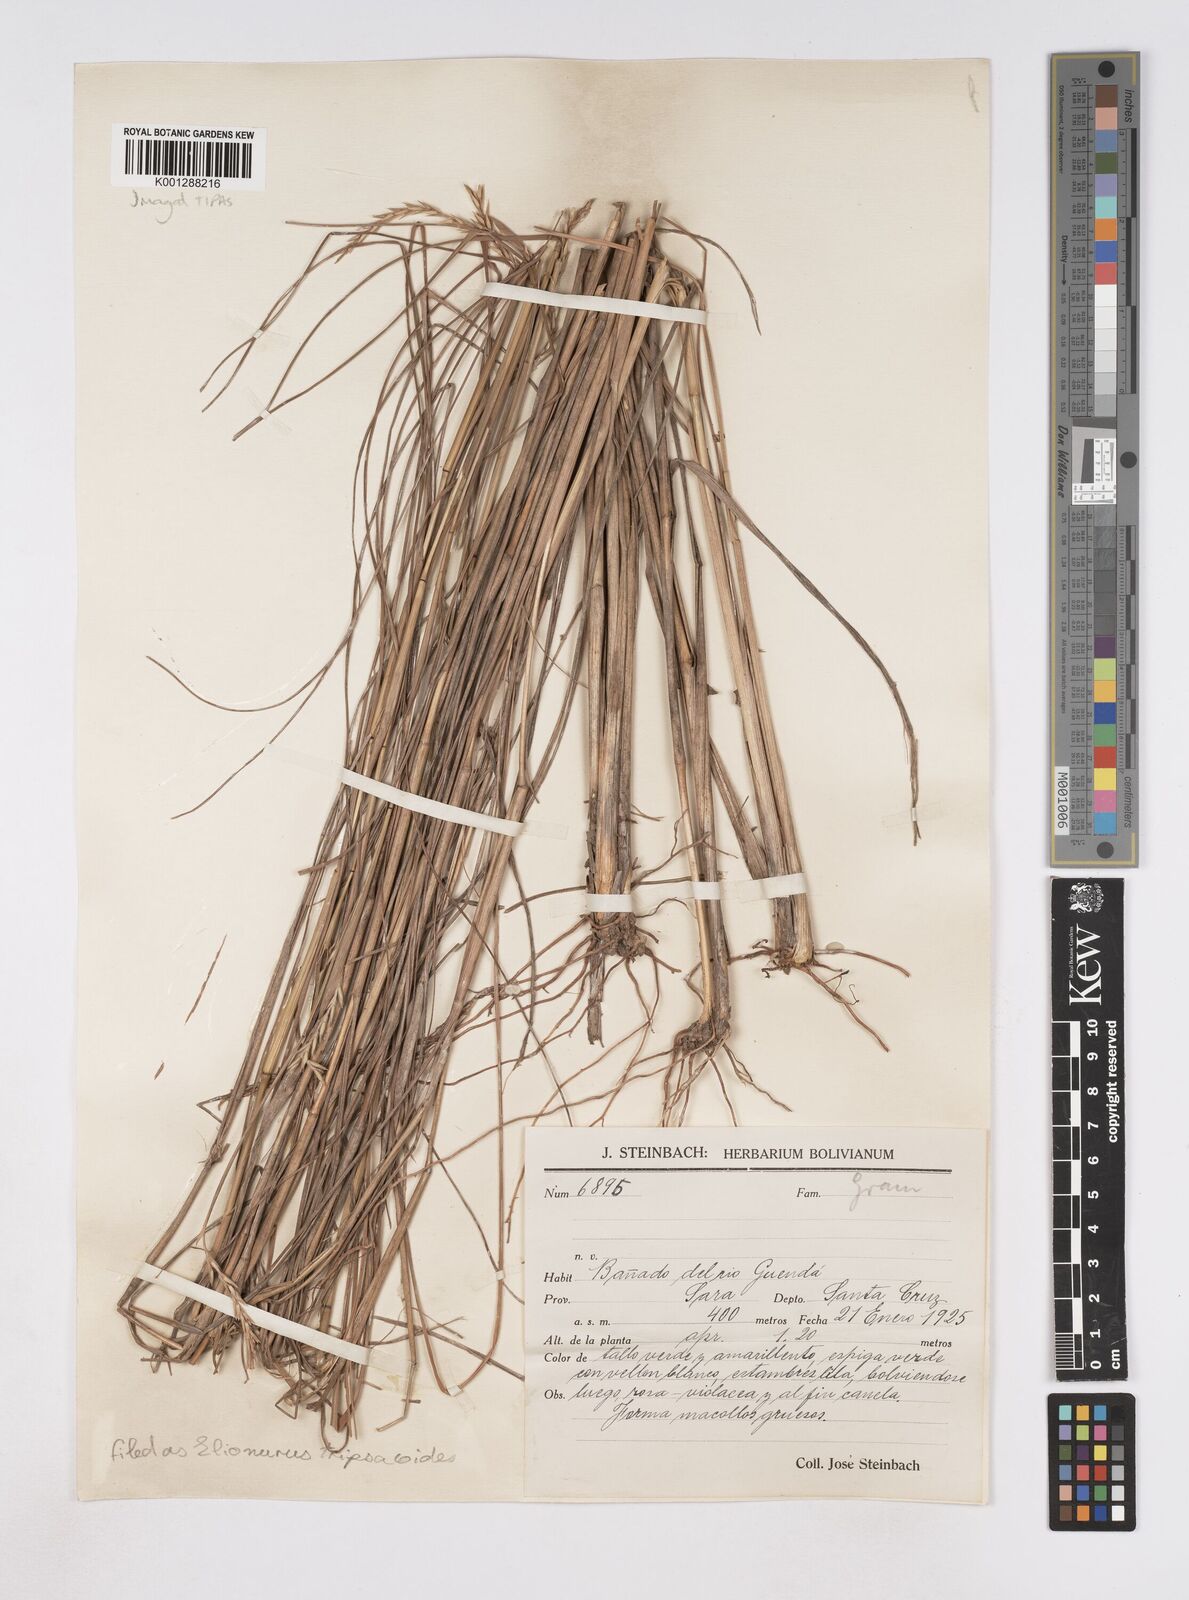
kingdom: Plantae
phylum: Tracheophyta
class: Liliopsida
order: Poales
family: Poaceae
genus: Elionurus
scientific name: Elionurus tripsacoides
